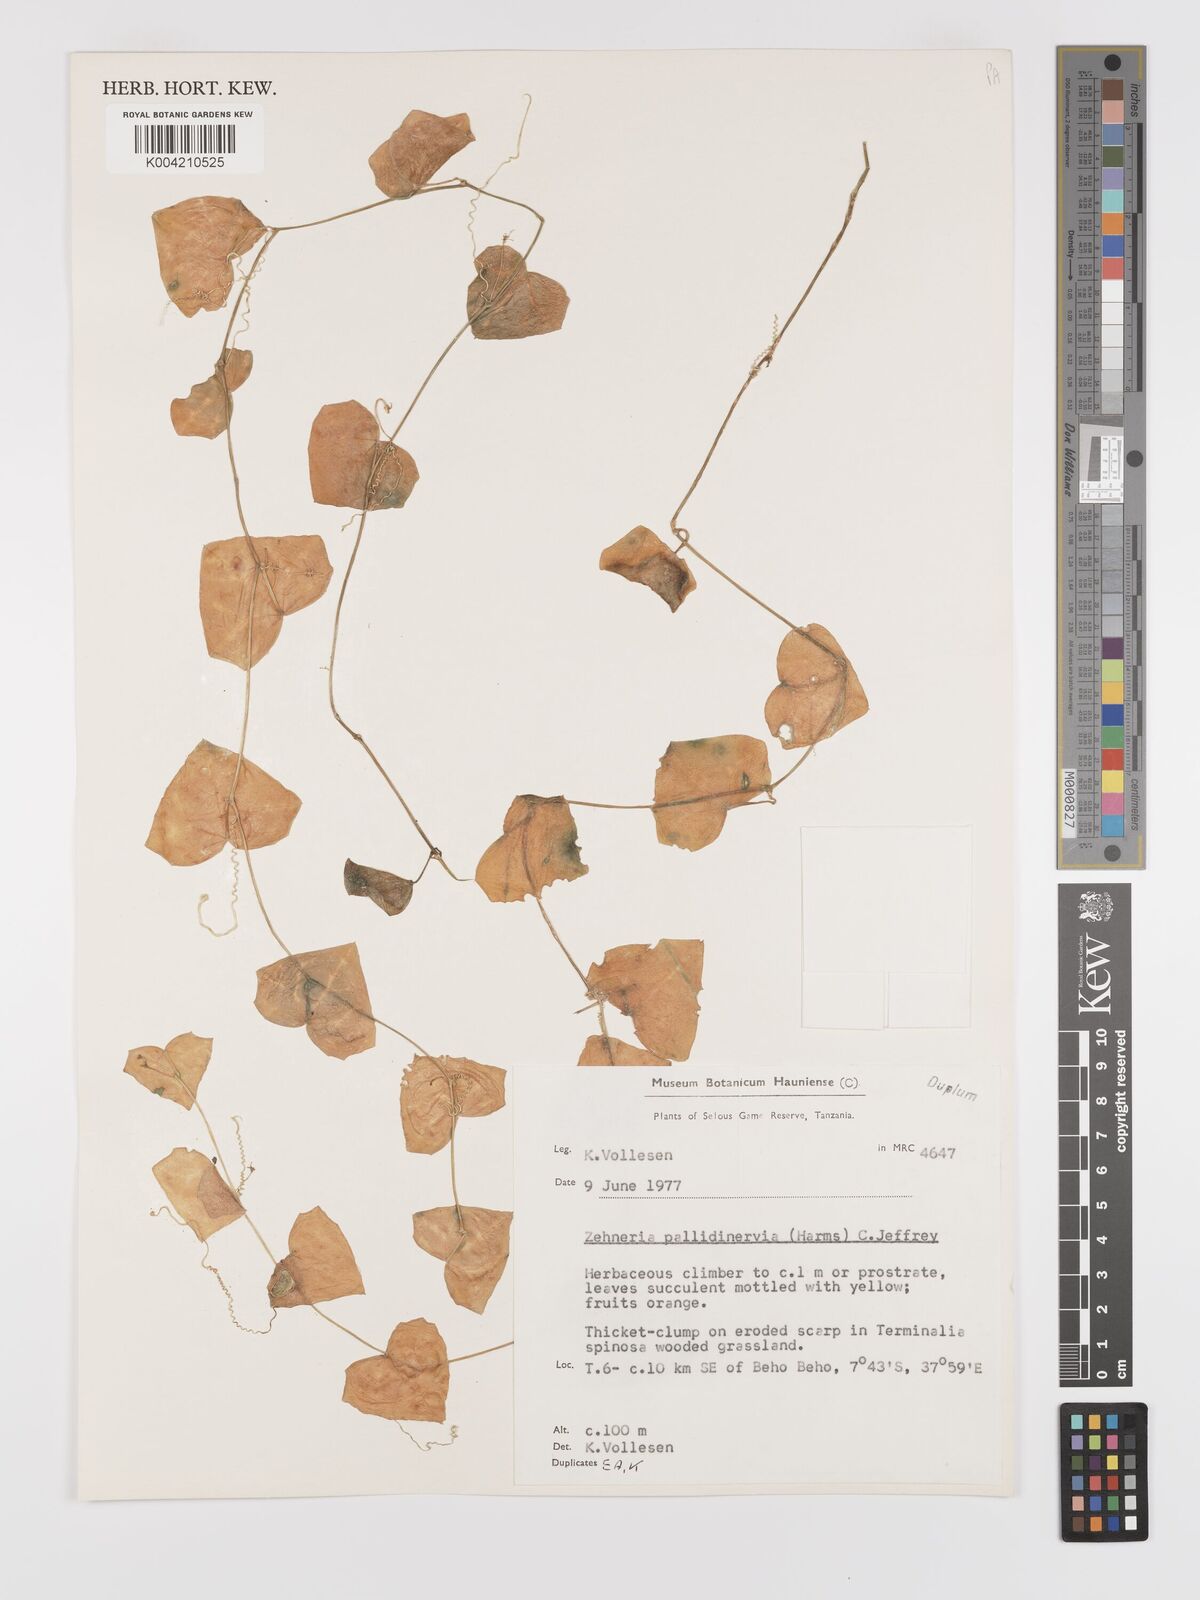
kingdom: Plantae
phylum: Tracheophyta
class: Magnoliopsida
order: Cucurbitales
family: Cucurbitaceae
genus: Zehneria
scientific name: Zehneria pallidinervia
